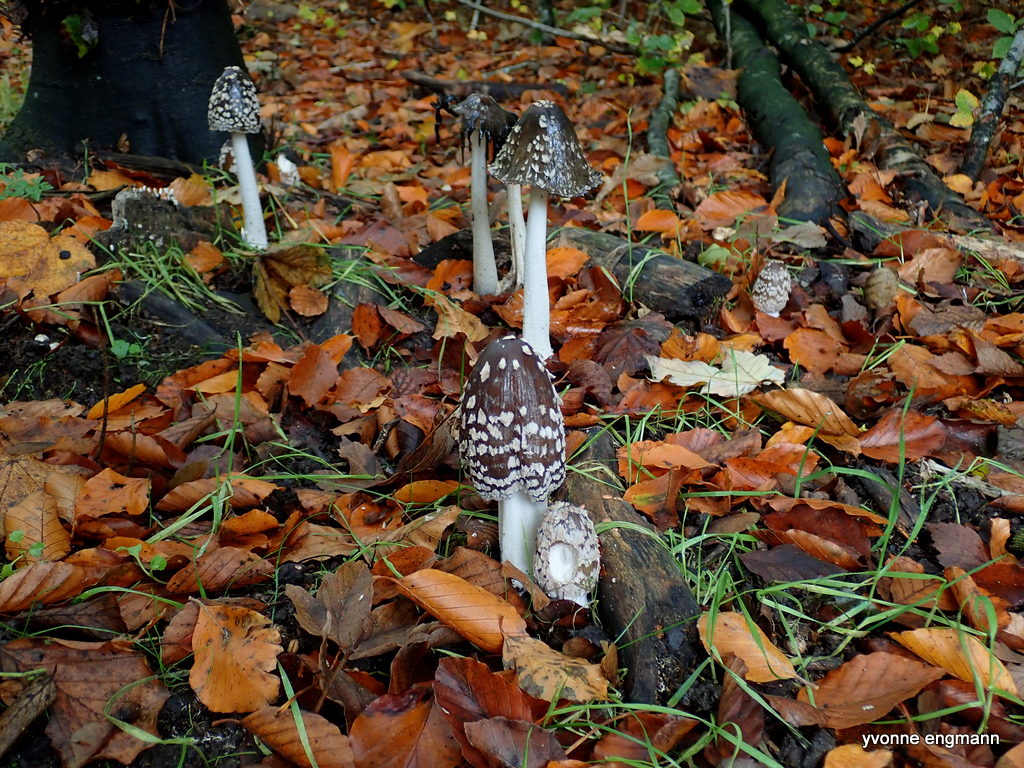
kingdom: Fungi
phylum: Basidiomycota
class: Agaricomycetes
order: Agaricales
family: Psathyrellaceae
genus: Coprinopsis
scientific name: Coprinopsis picacea
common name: skade-blækhat
